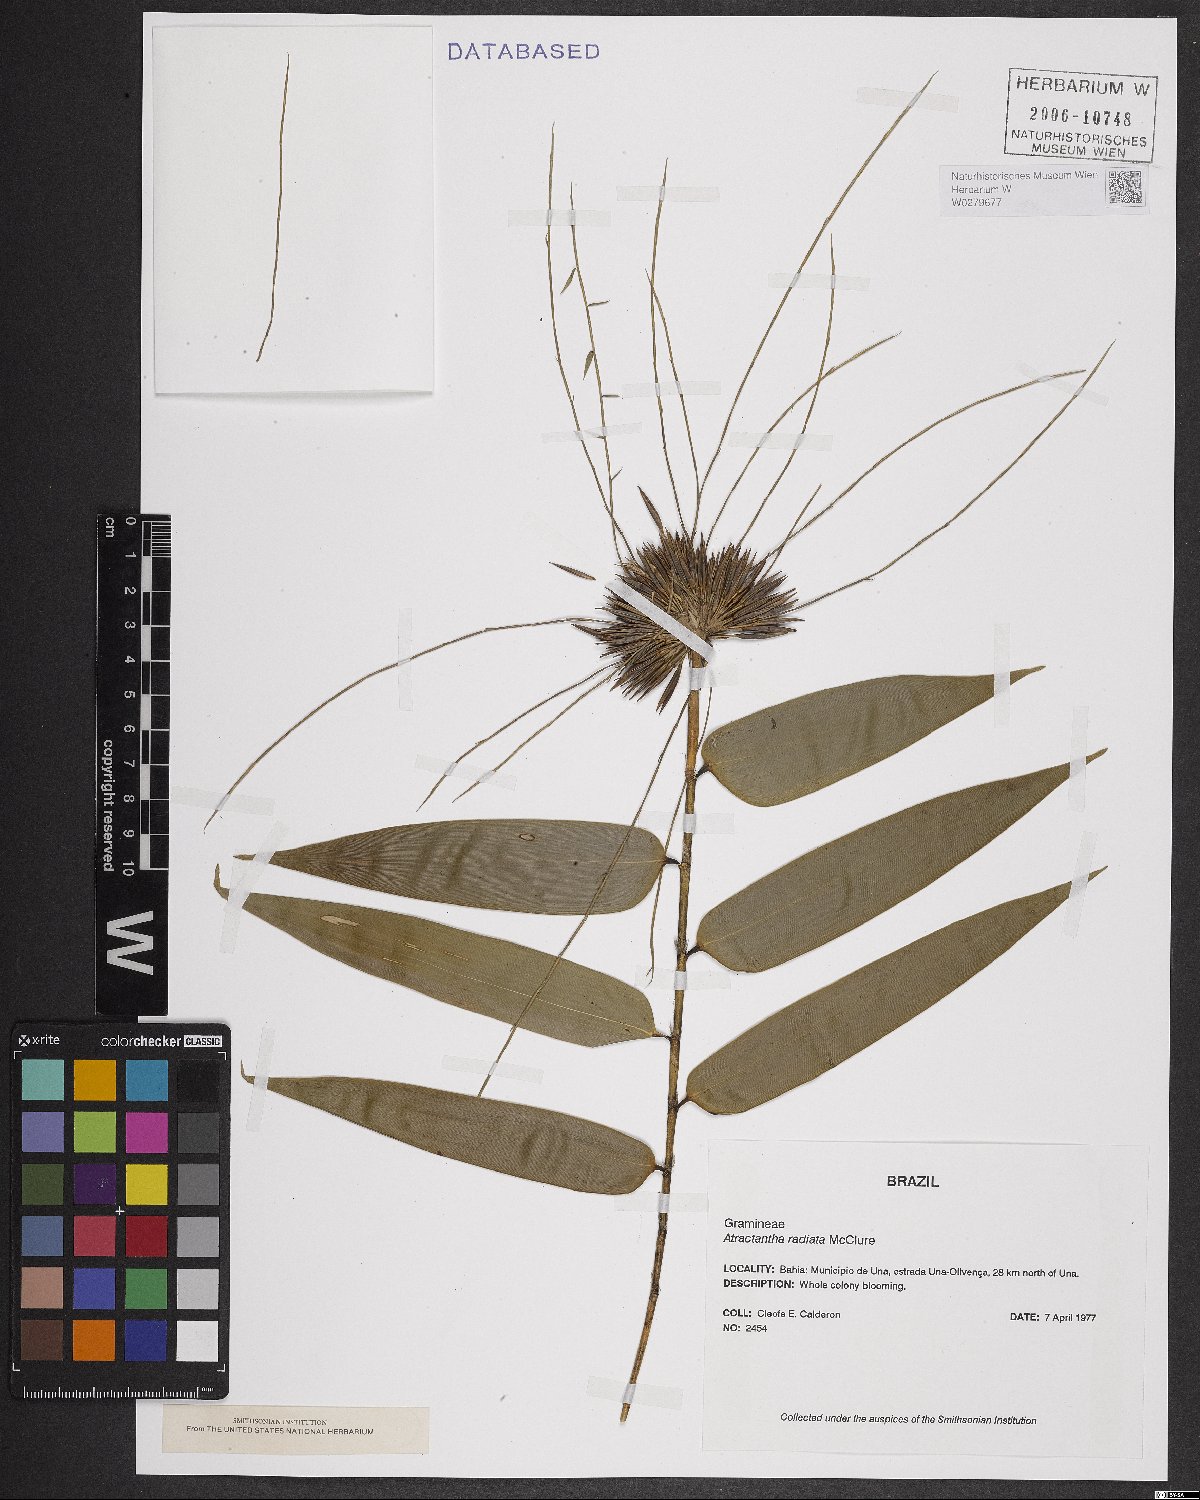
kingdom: Plantae
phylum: Tracheophyta
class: Liliopsida
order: Poales
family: Poaceae
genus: Atractantha
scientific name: Atractantha radiata
